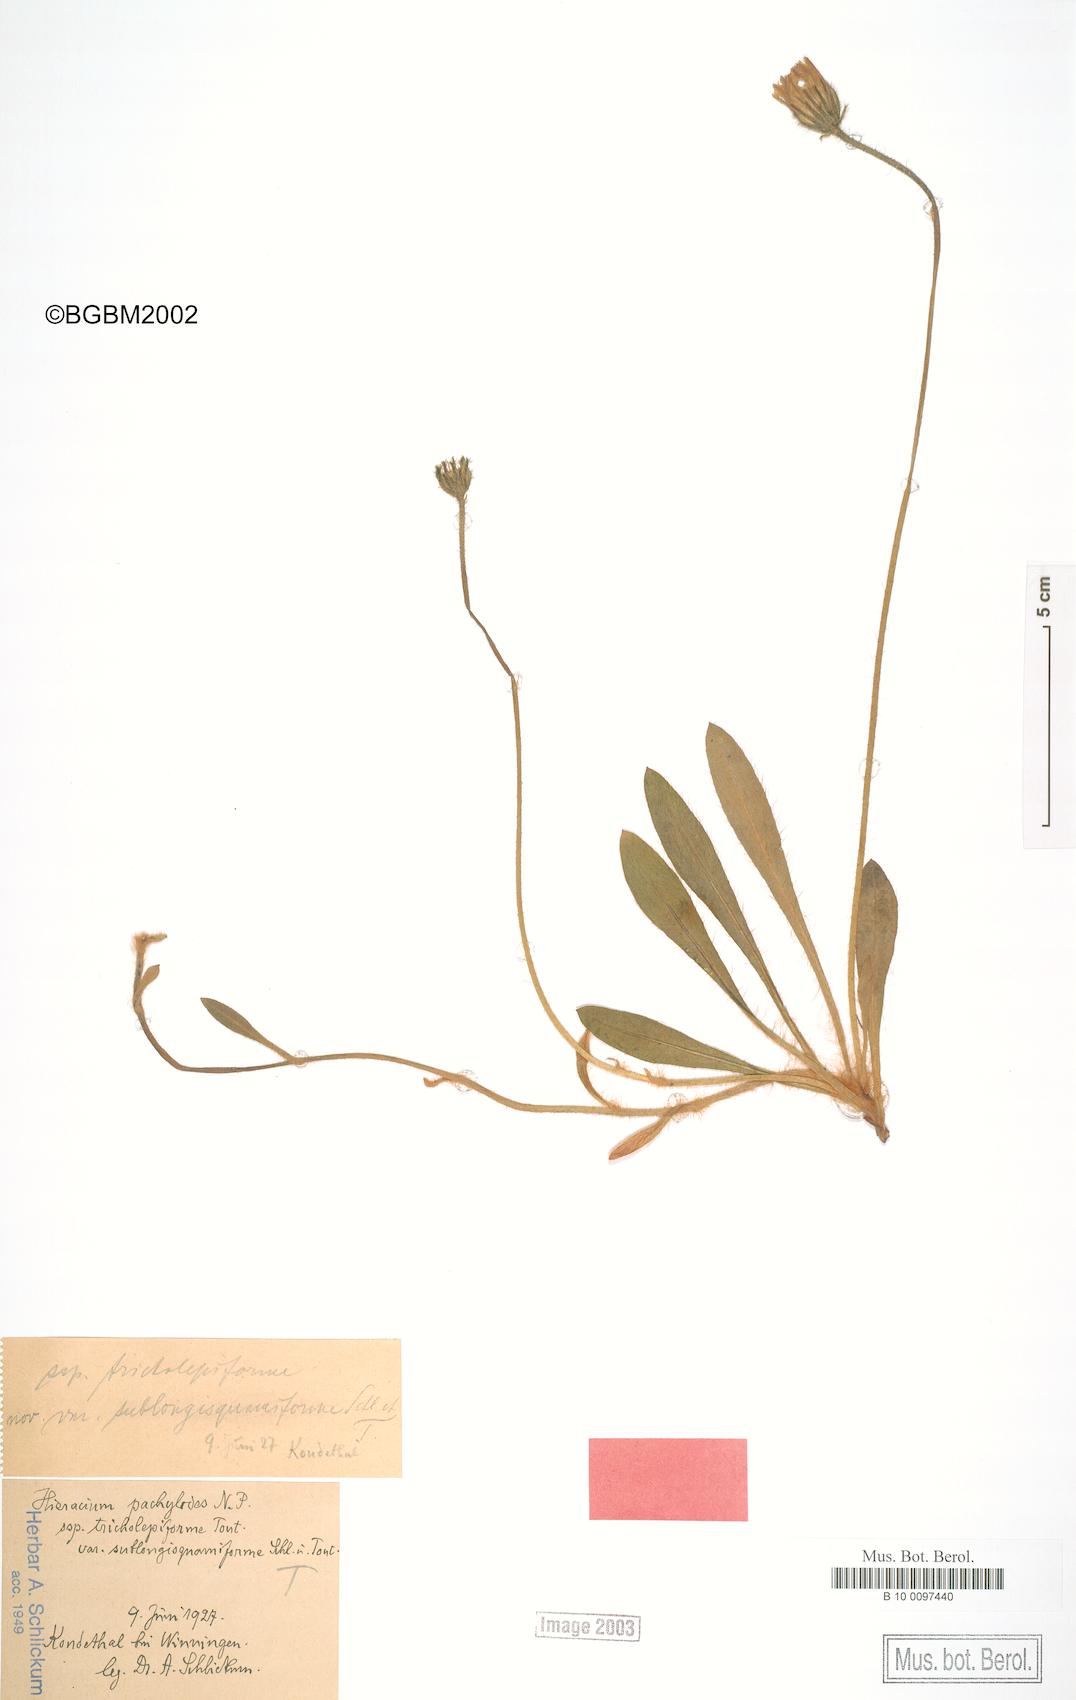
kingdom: Plantae
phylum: Tracheophyta
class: Magnoliopsida
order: Asterales
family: Asteraceae
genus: Pilosella
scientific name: Pilosella longisquama
